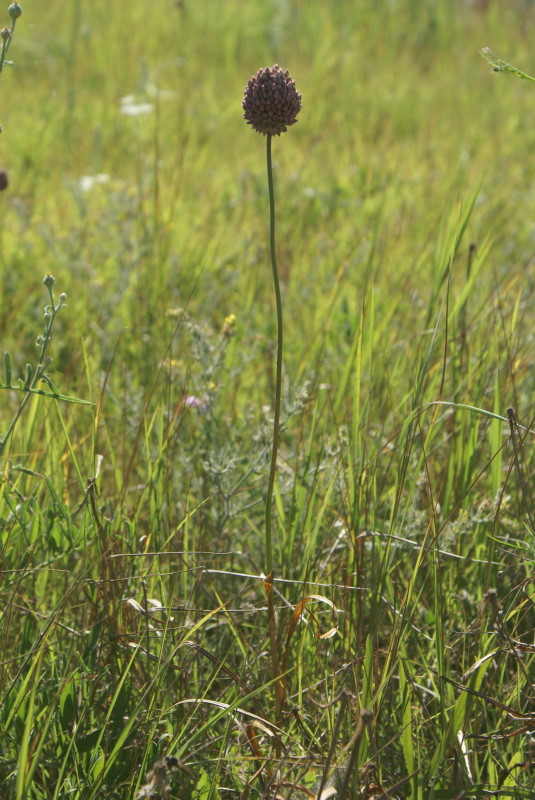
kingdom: Plantae
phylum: Tracheophyta
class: Liliopsida
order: Asparagales
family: Amaryllidaceae
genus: Allium
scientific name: Allium rotundum
